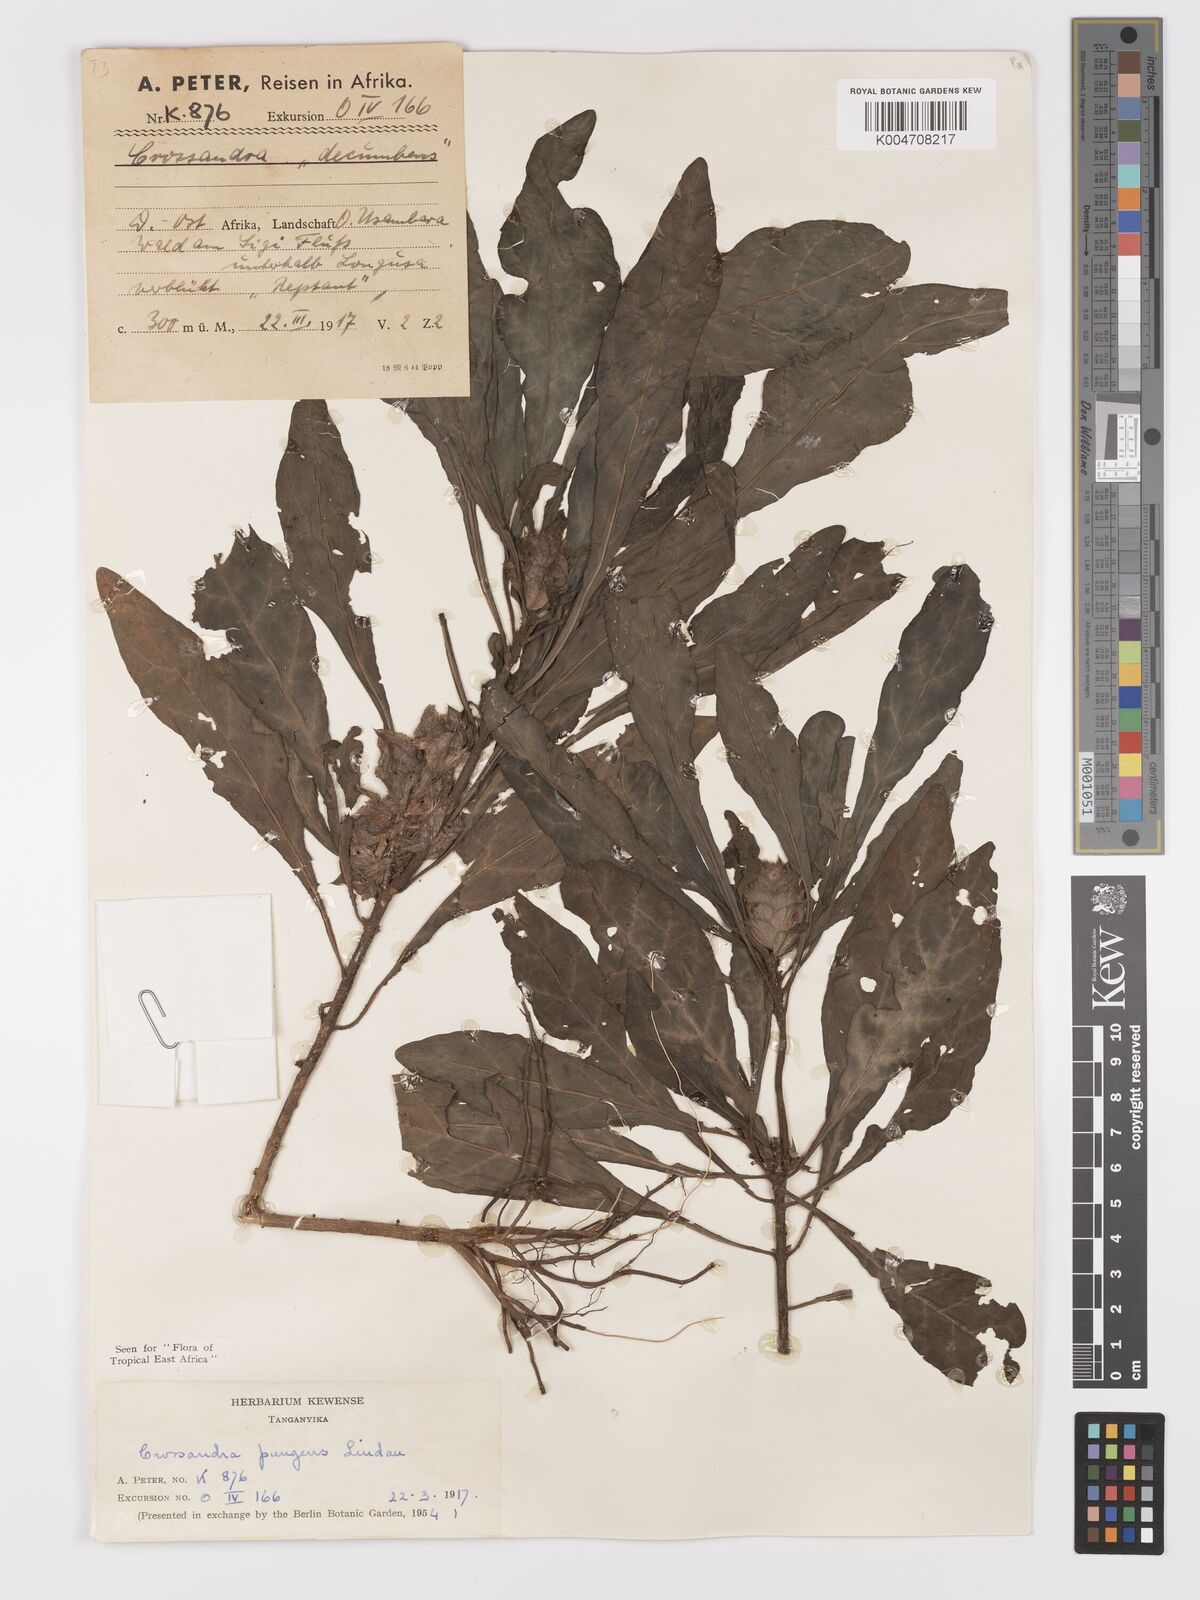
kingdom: Plantae
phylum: Tracheophyta
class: Magnoliopsida
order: Lamiales
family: Acanthaceae
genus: Crossandra
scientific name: Crossandra pungens
